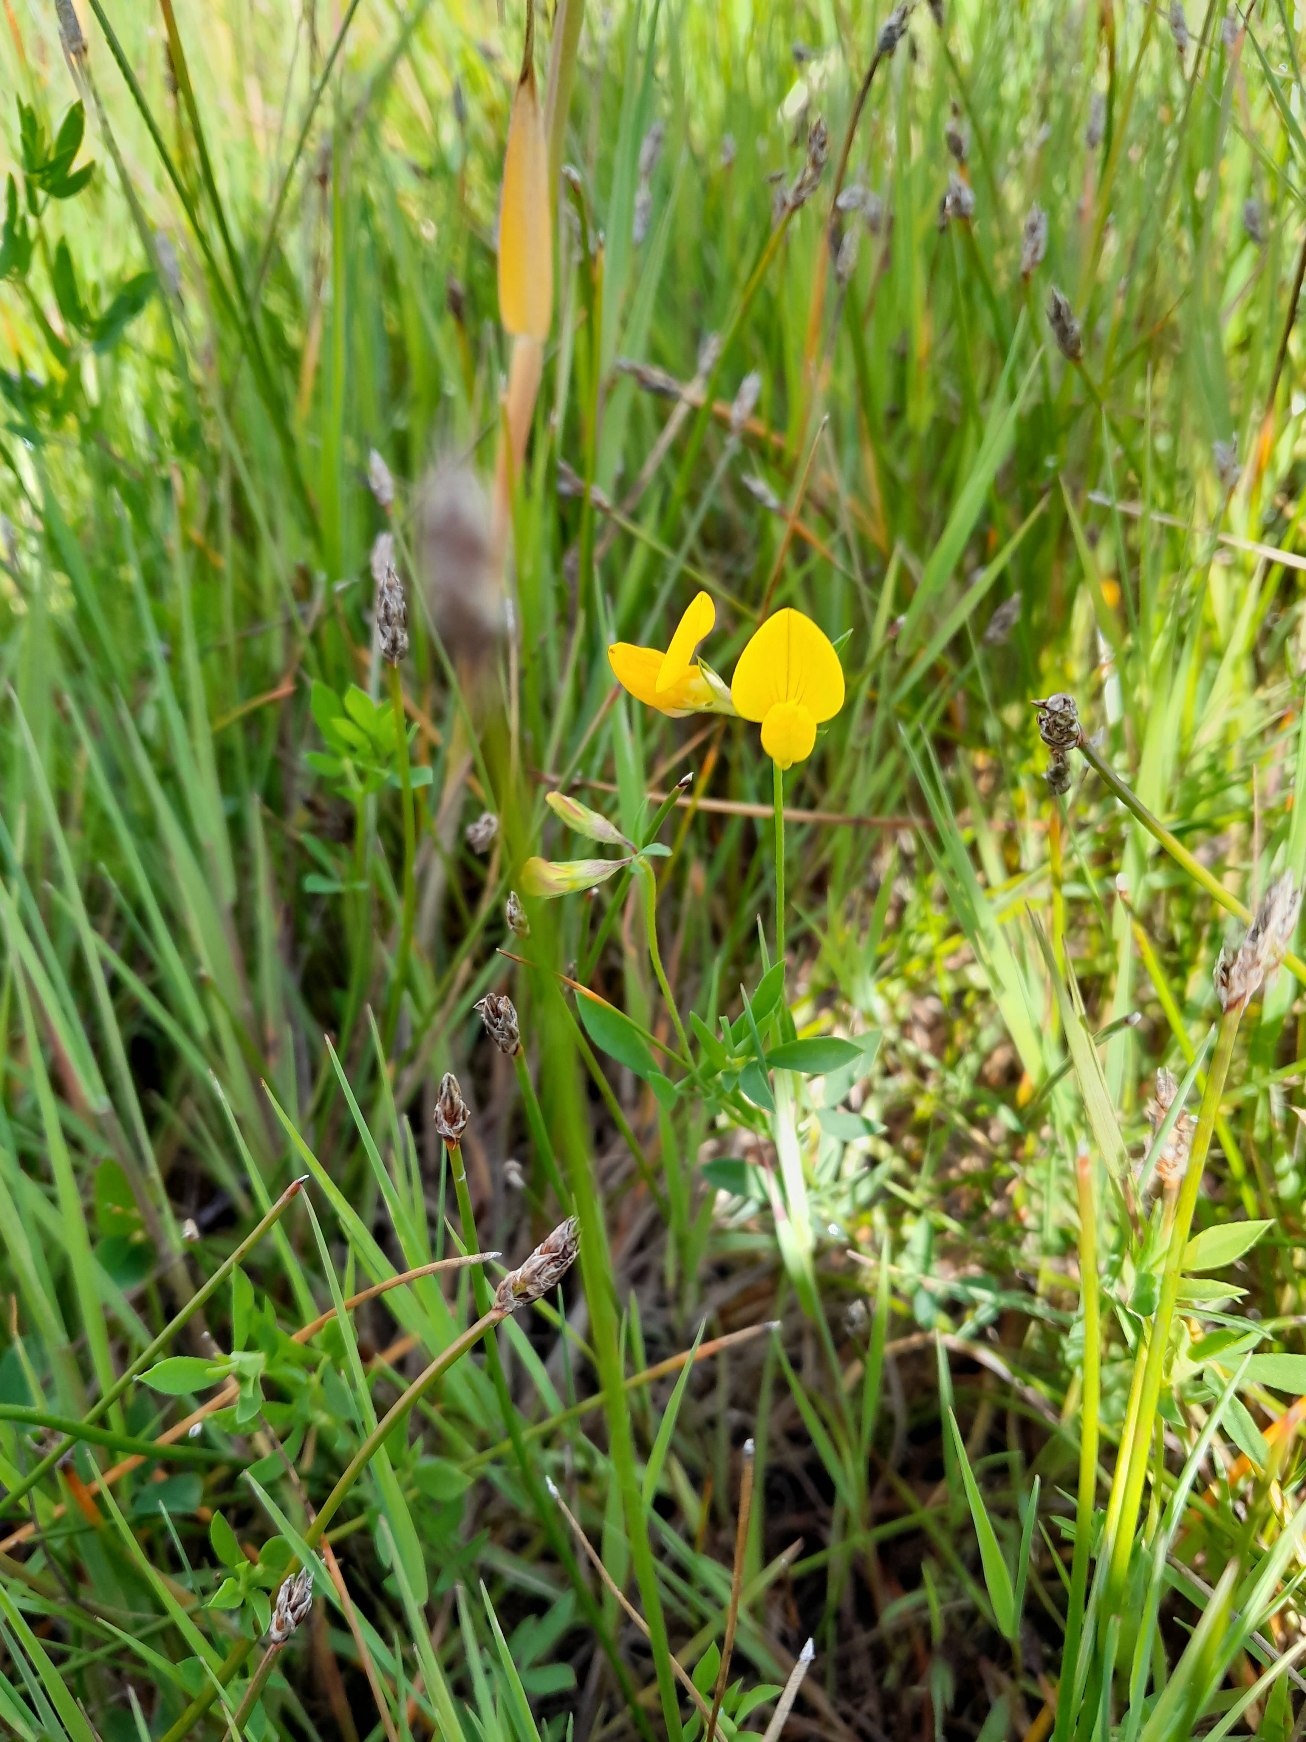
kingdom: Plantae
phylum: Tracheophyta
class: Magnoliopsida
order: Fabales
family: Fabaceae
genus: Lotus
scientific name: Lotus tenuis
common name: Smalbladet kællingetand
